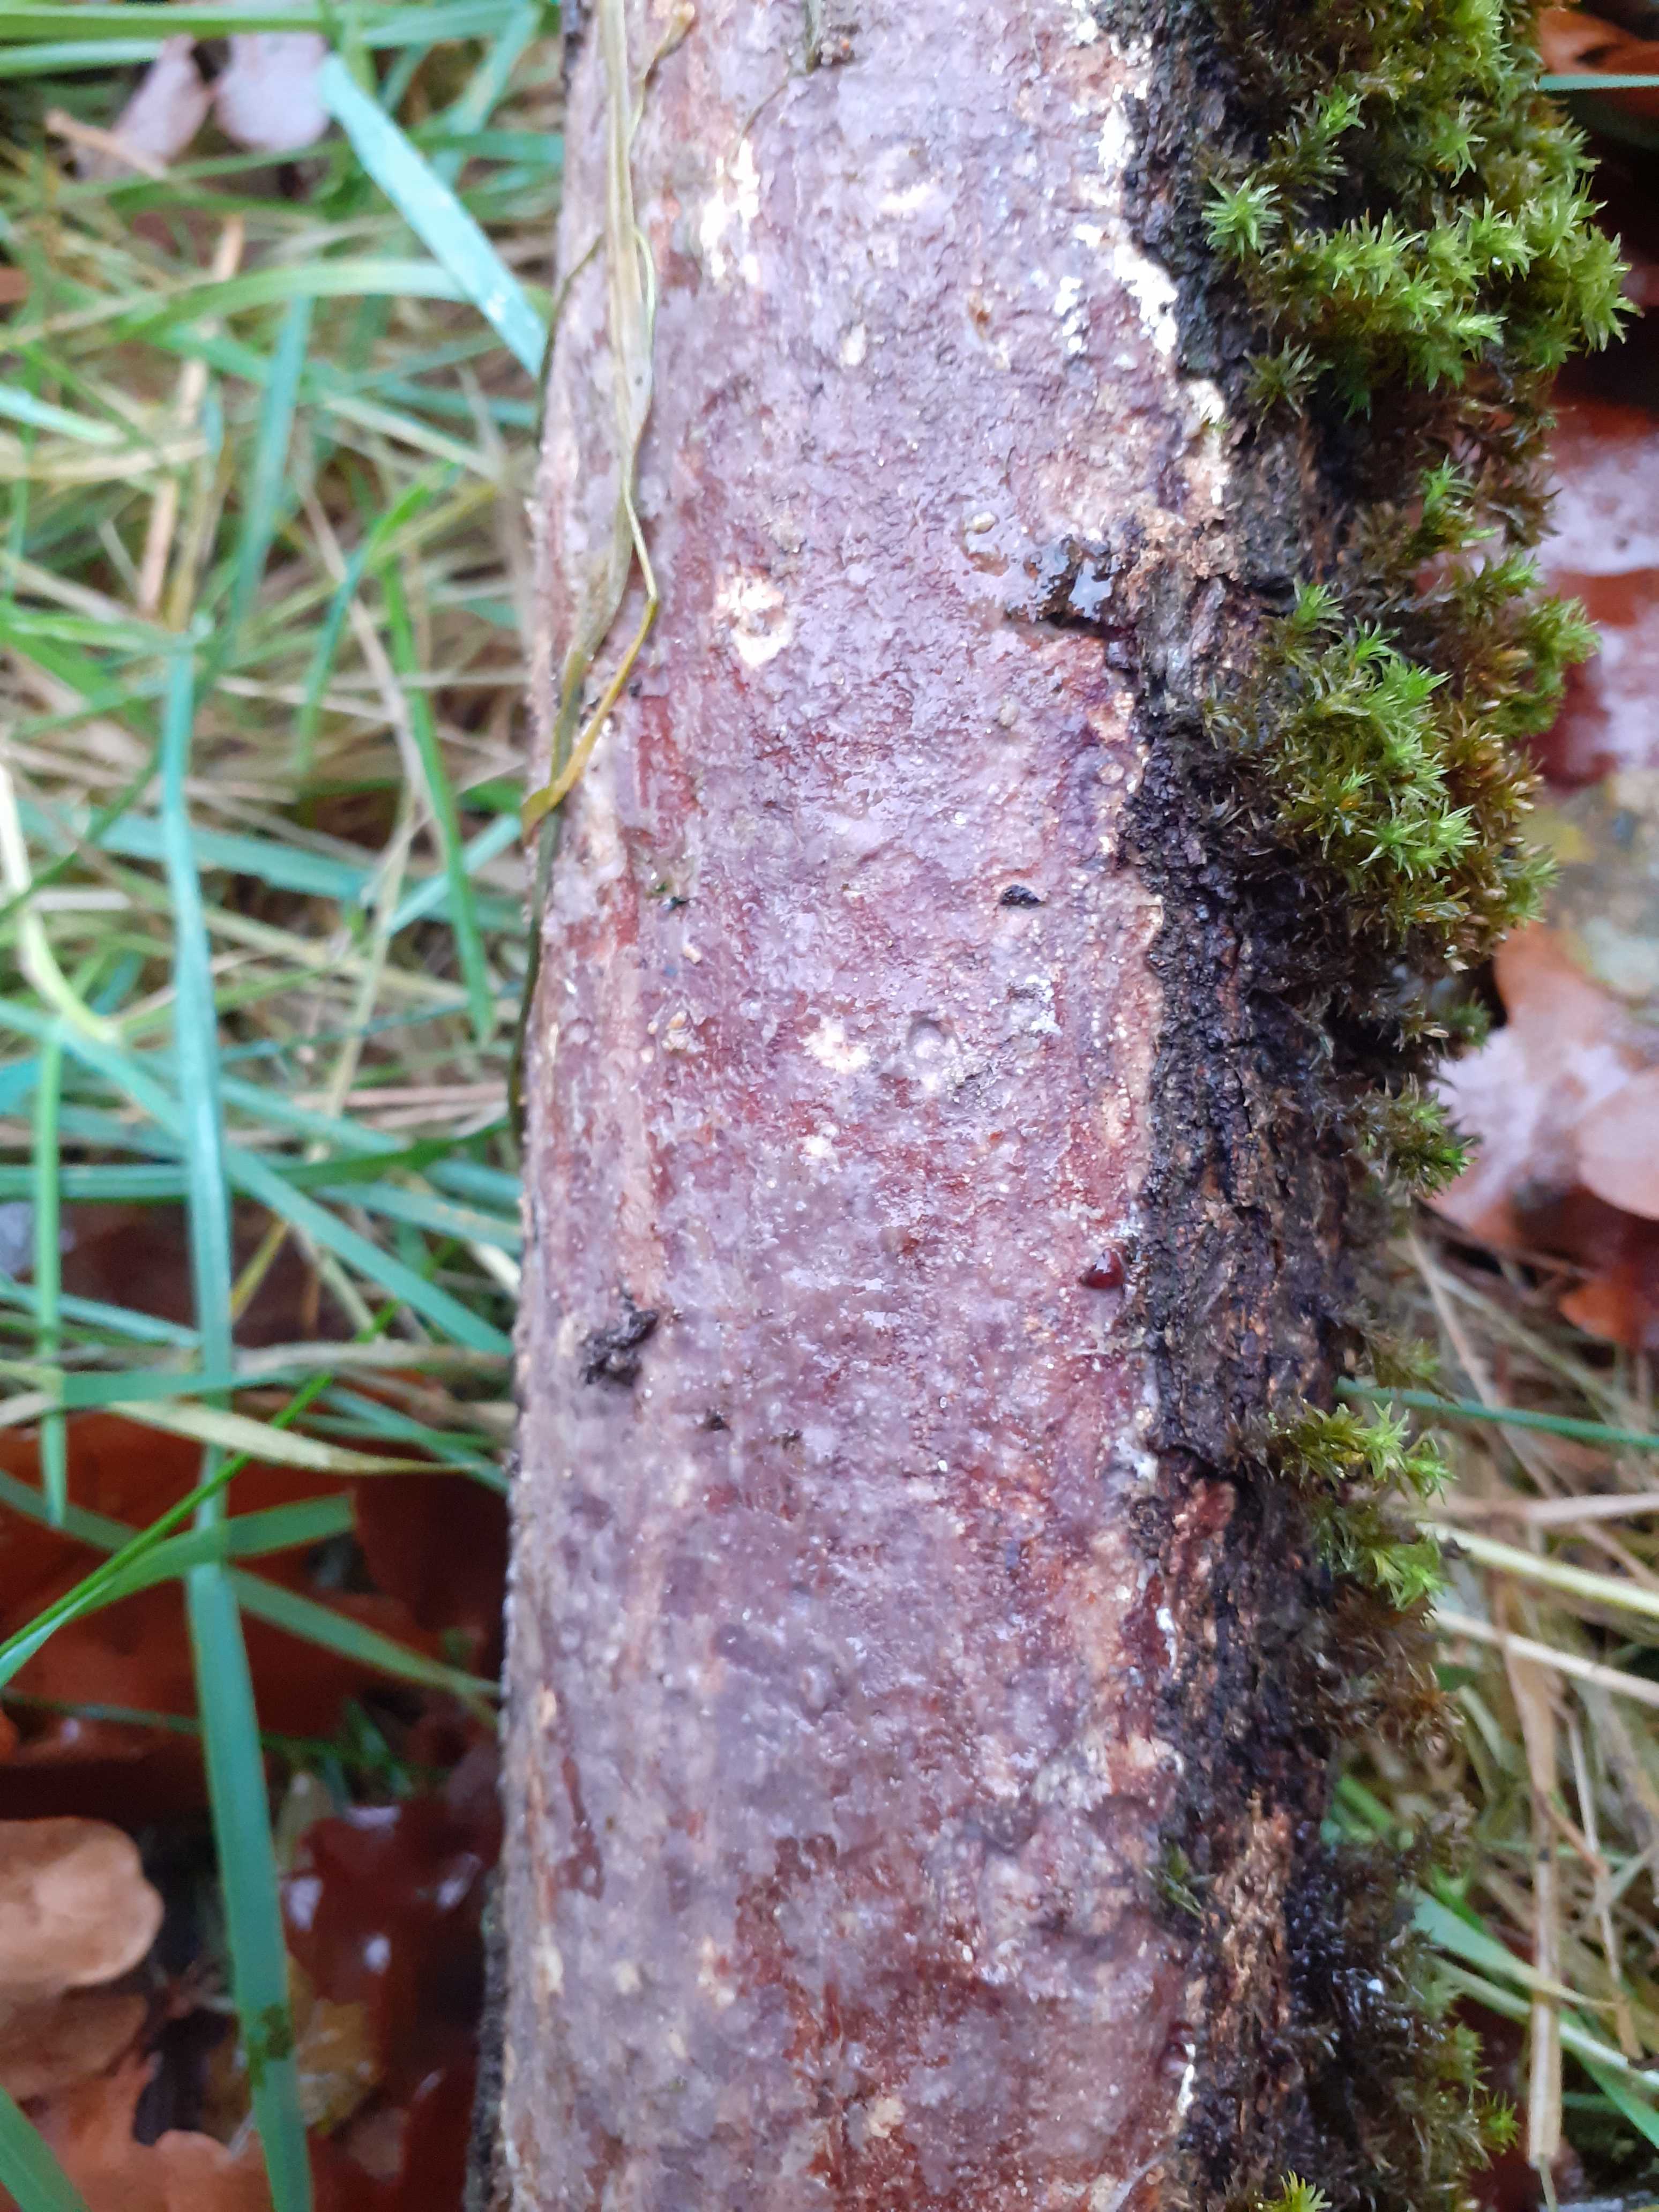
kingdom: Fungi
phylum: Basidiomycota
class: Agaricomycetes
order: Corticiales
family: Vuilleminiaceae
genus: Vuilleminia
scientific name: Vuilleminia comedens
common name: almindelig barksprænger
